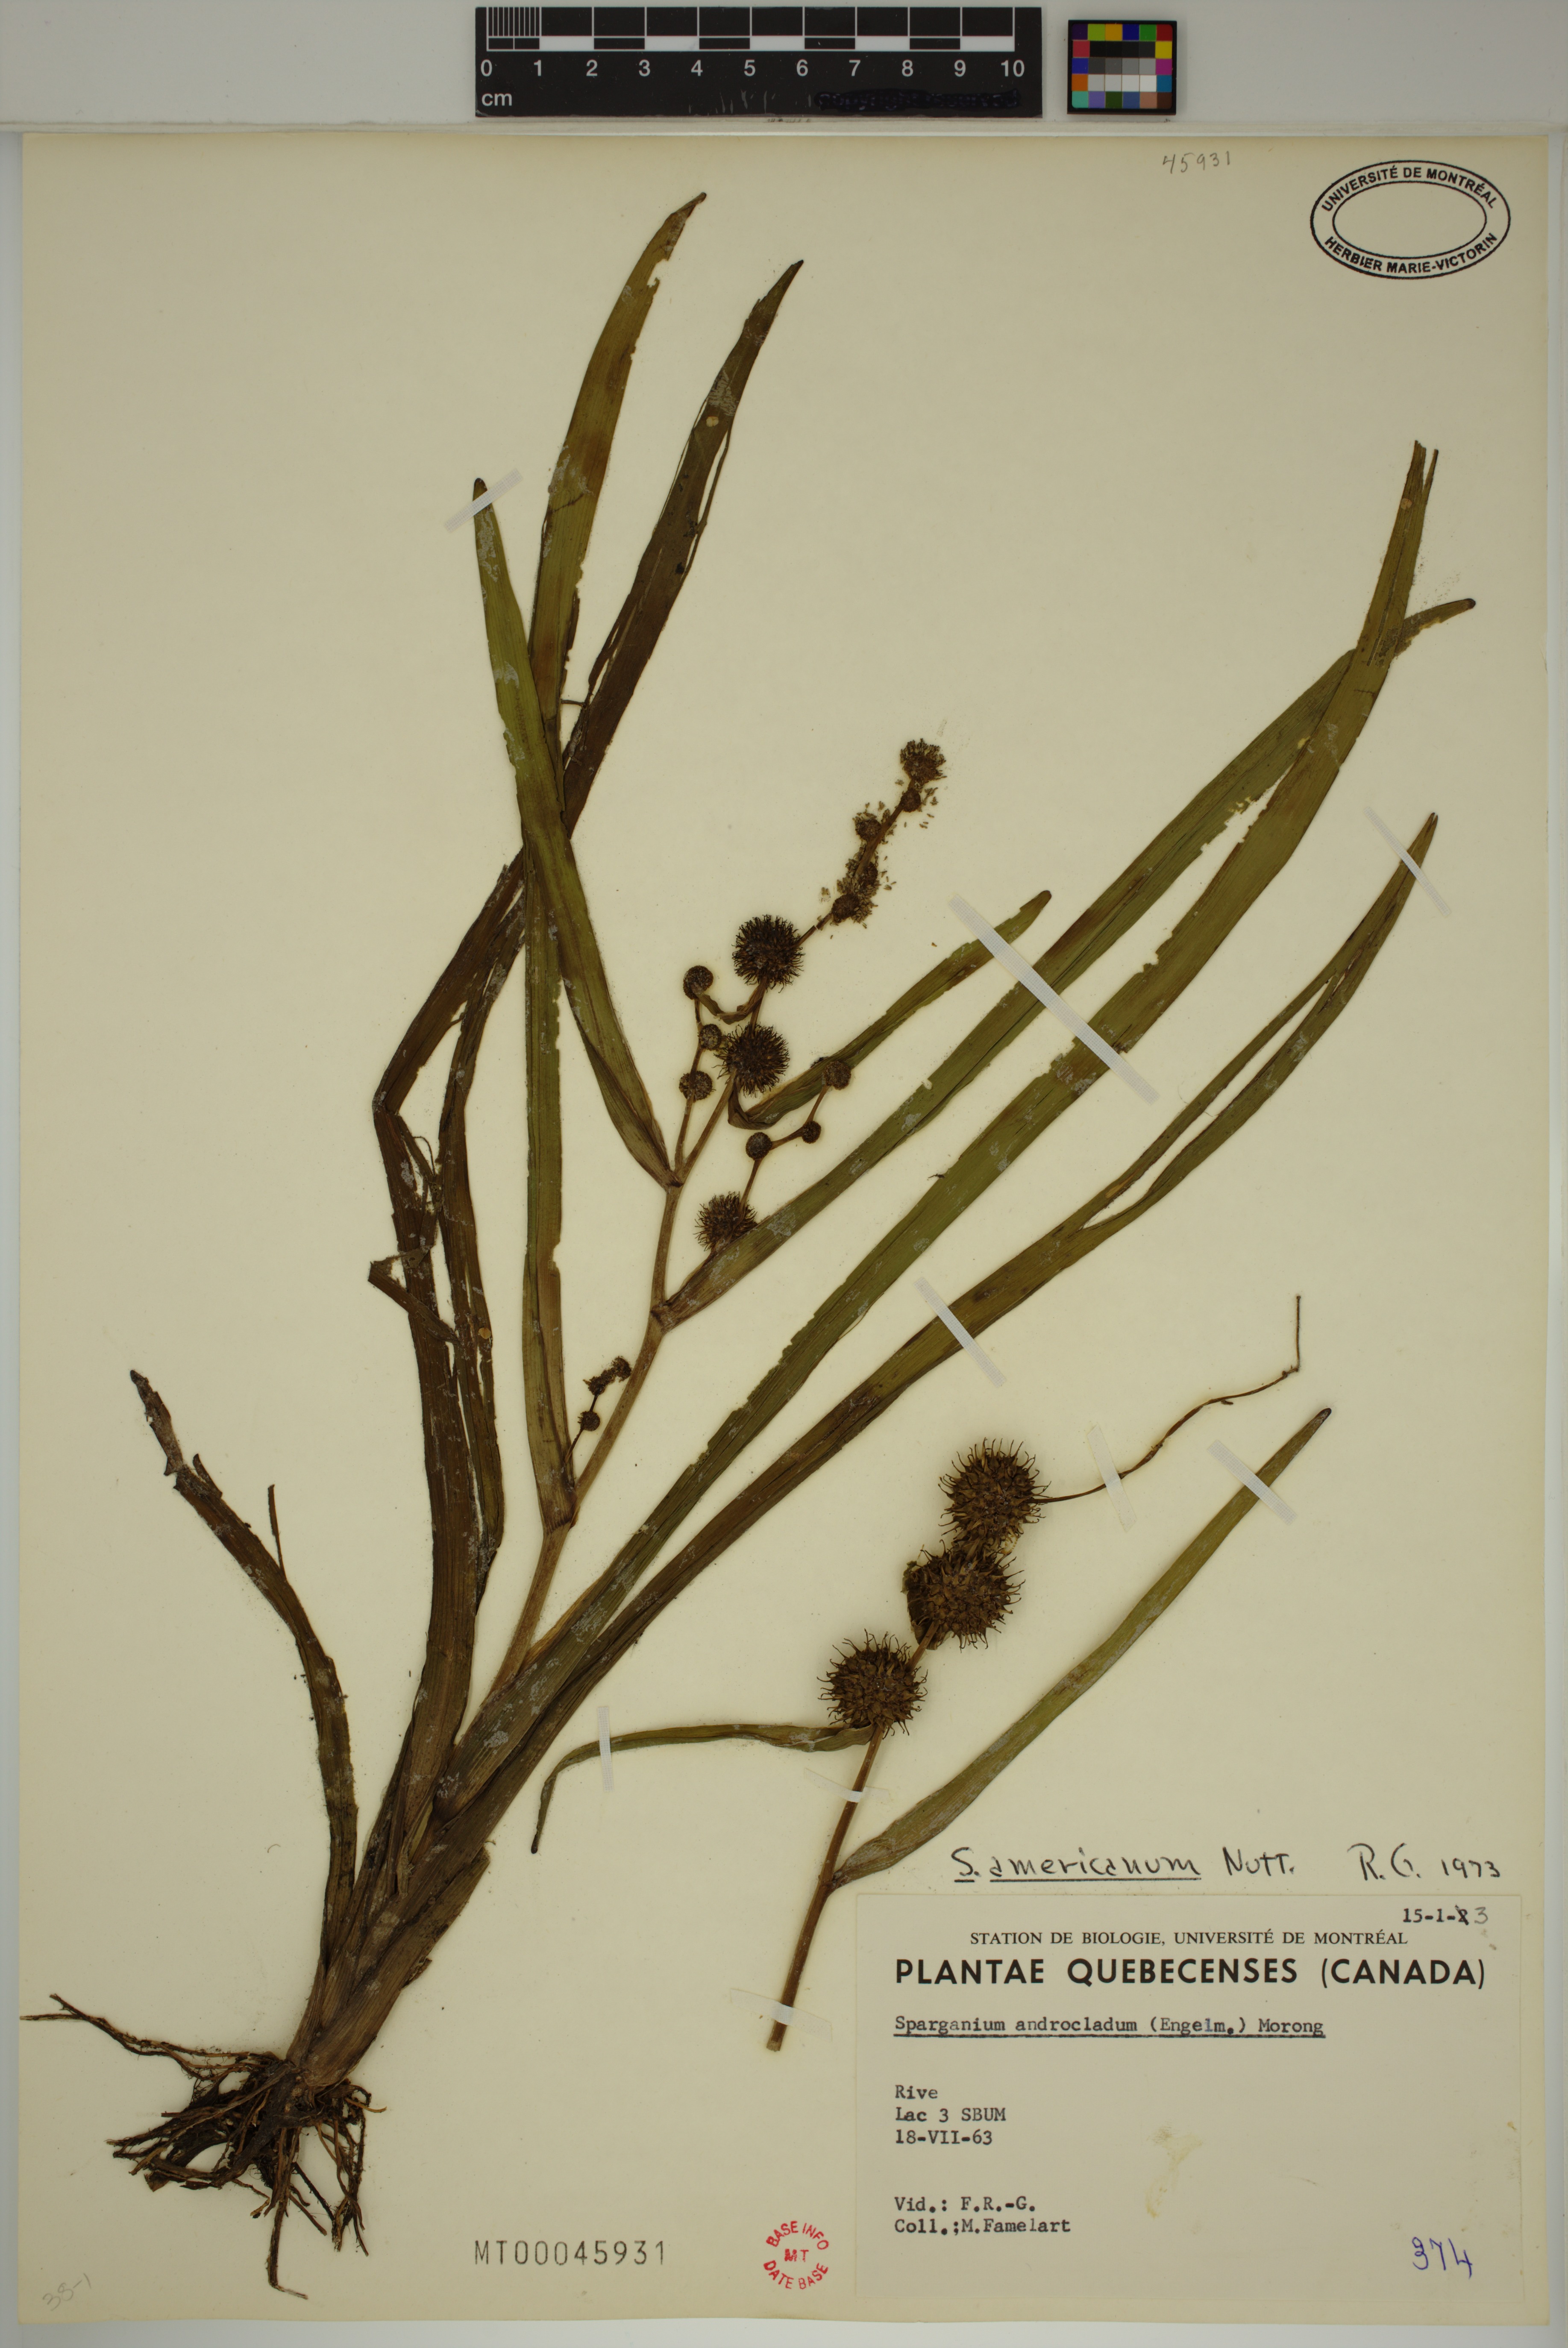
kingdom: Plantae
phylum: Tracheophyta
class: Liliopsida
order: Poales
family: Typhaceae
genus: Sparganium
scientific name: Sparganium americanum
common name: American burreed
